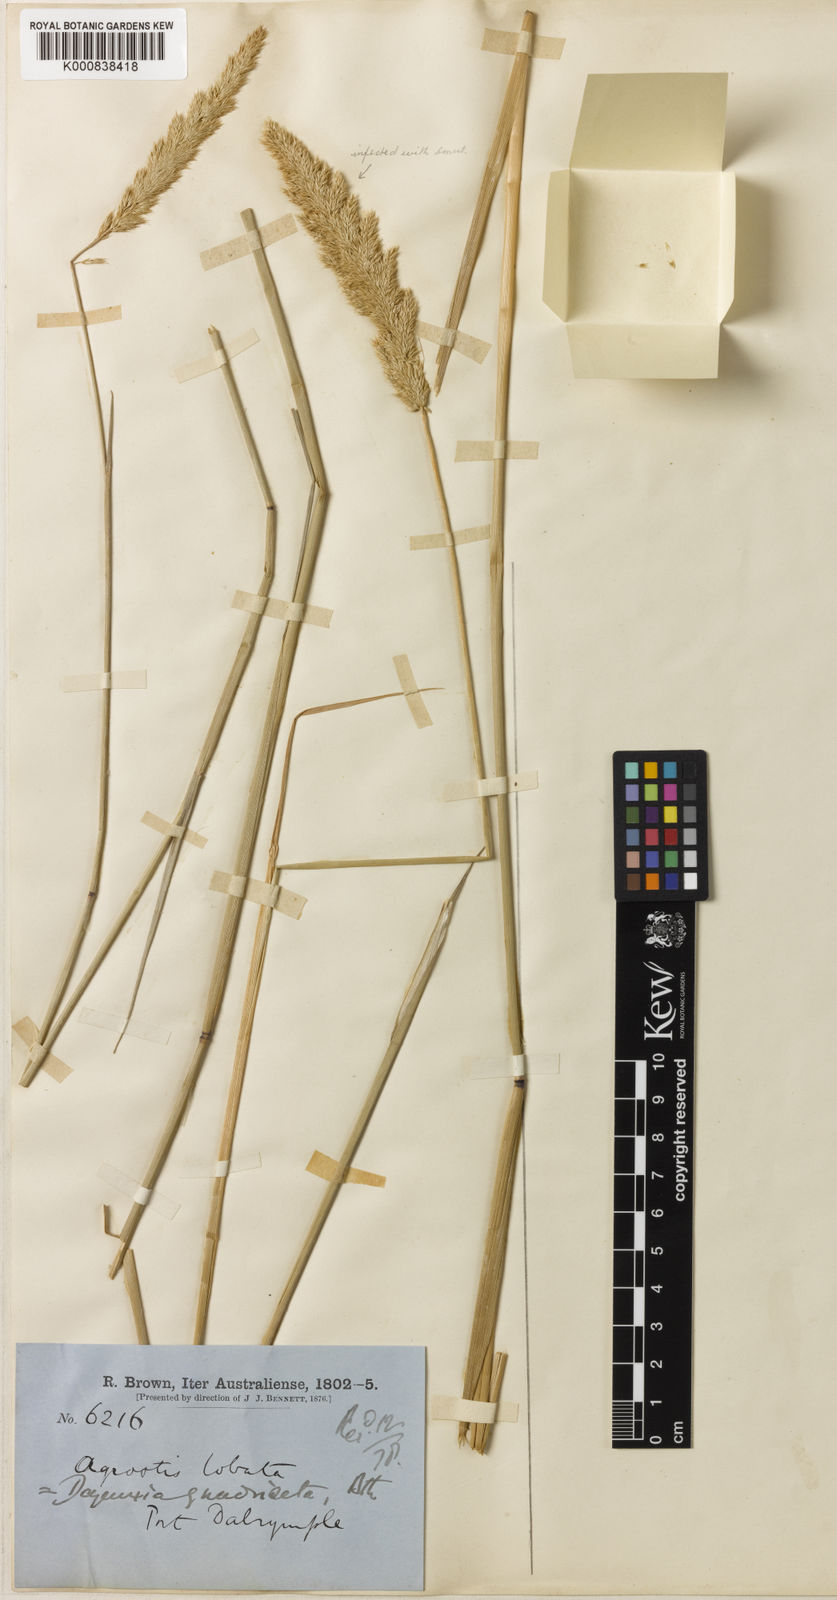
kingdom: Plantae
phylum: Tracheophyta
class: Liliopsida
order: Poales
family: Poaceae
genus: Calamagrostis
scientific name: Calamagrostis quadriseta
